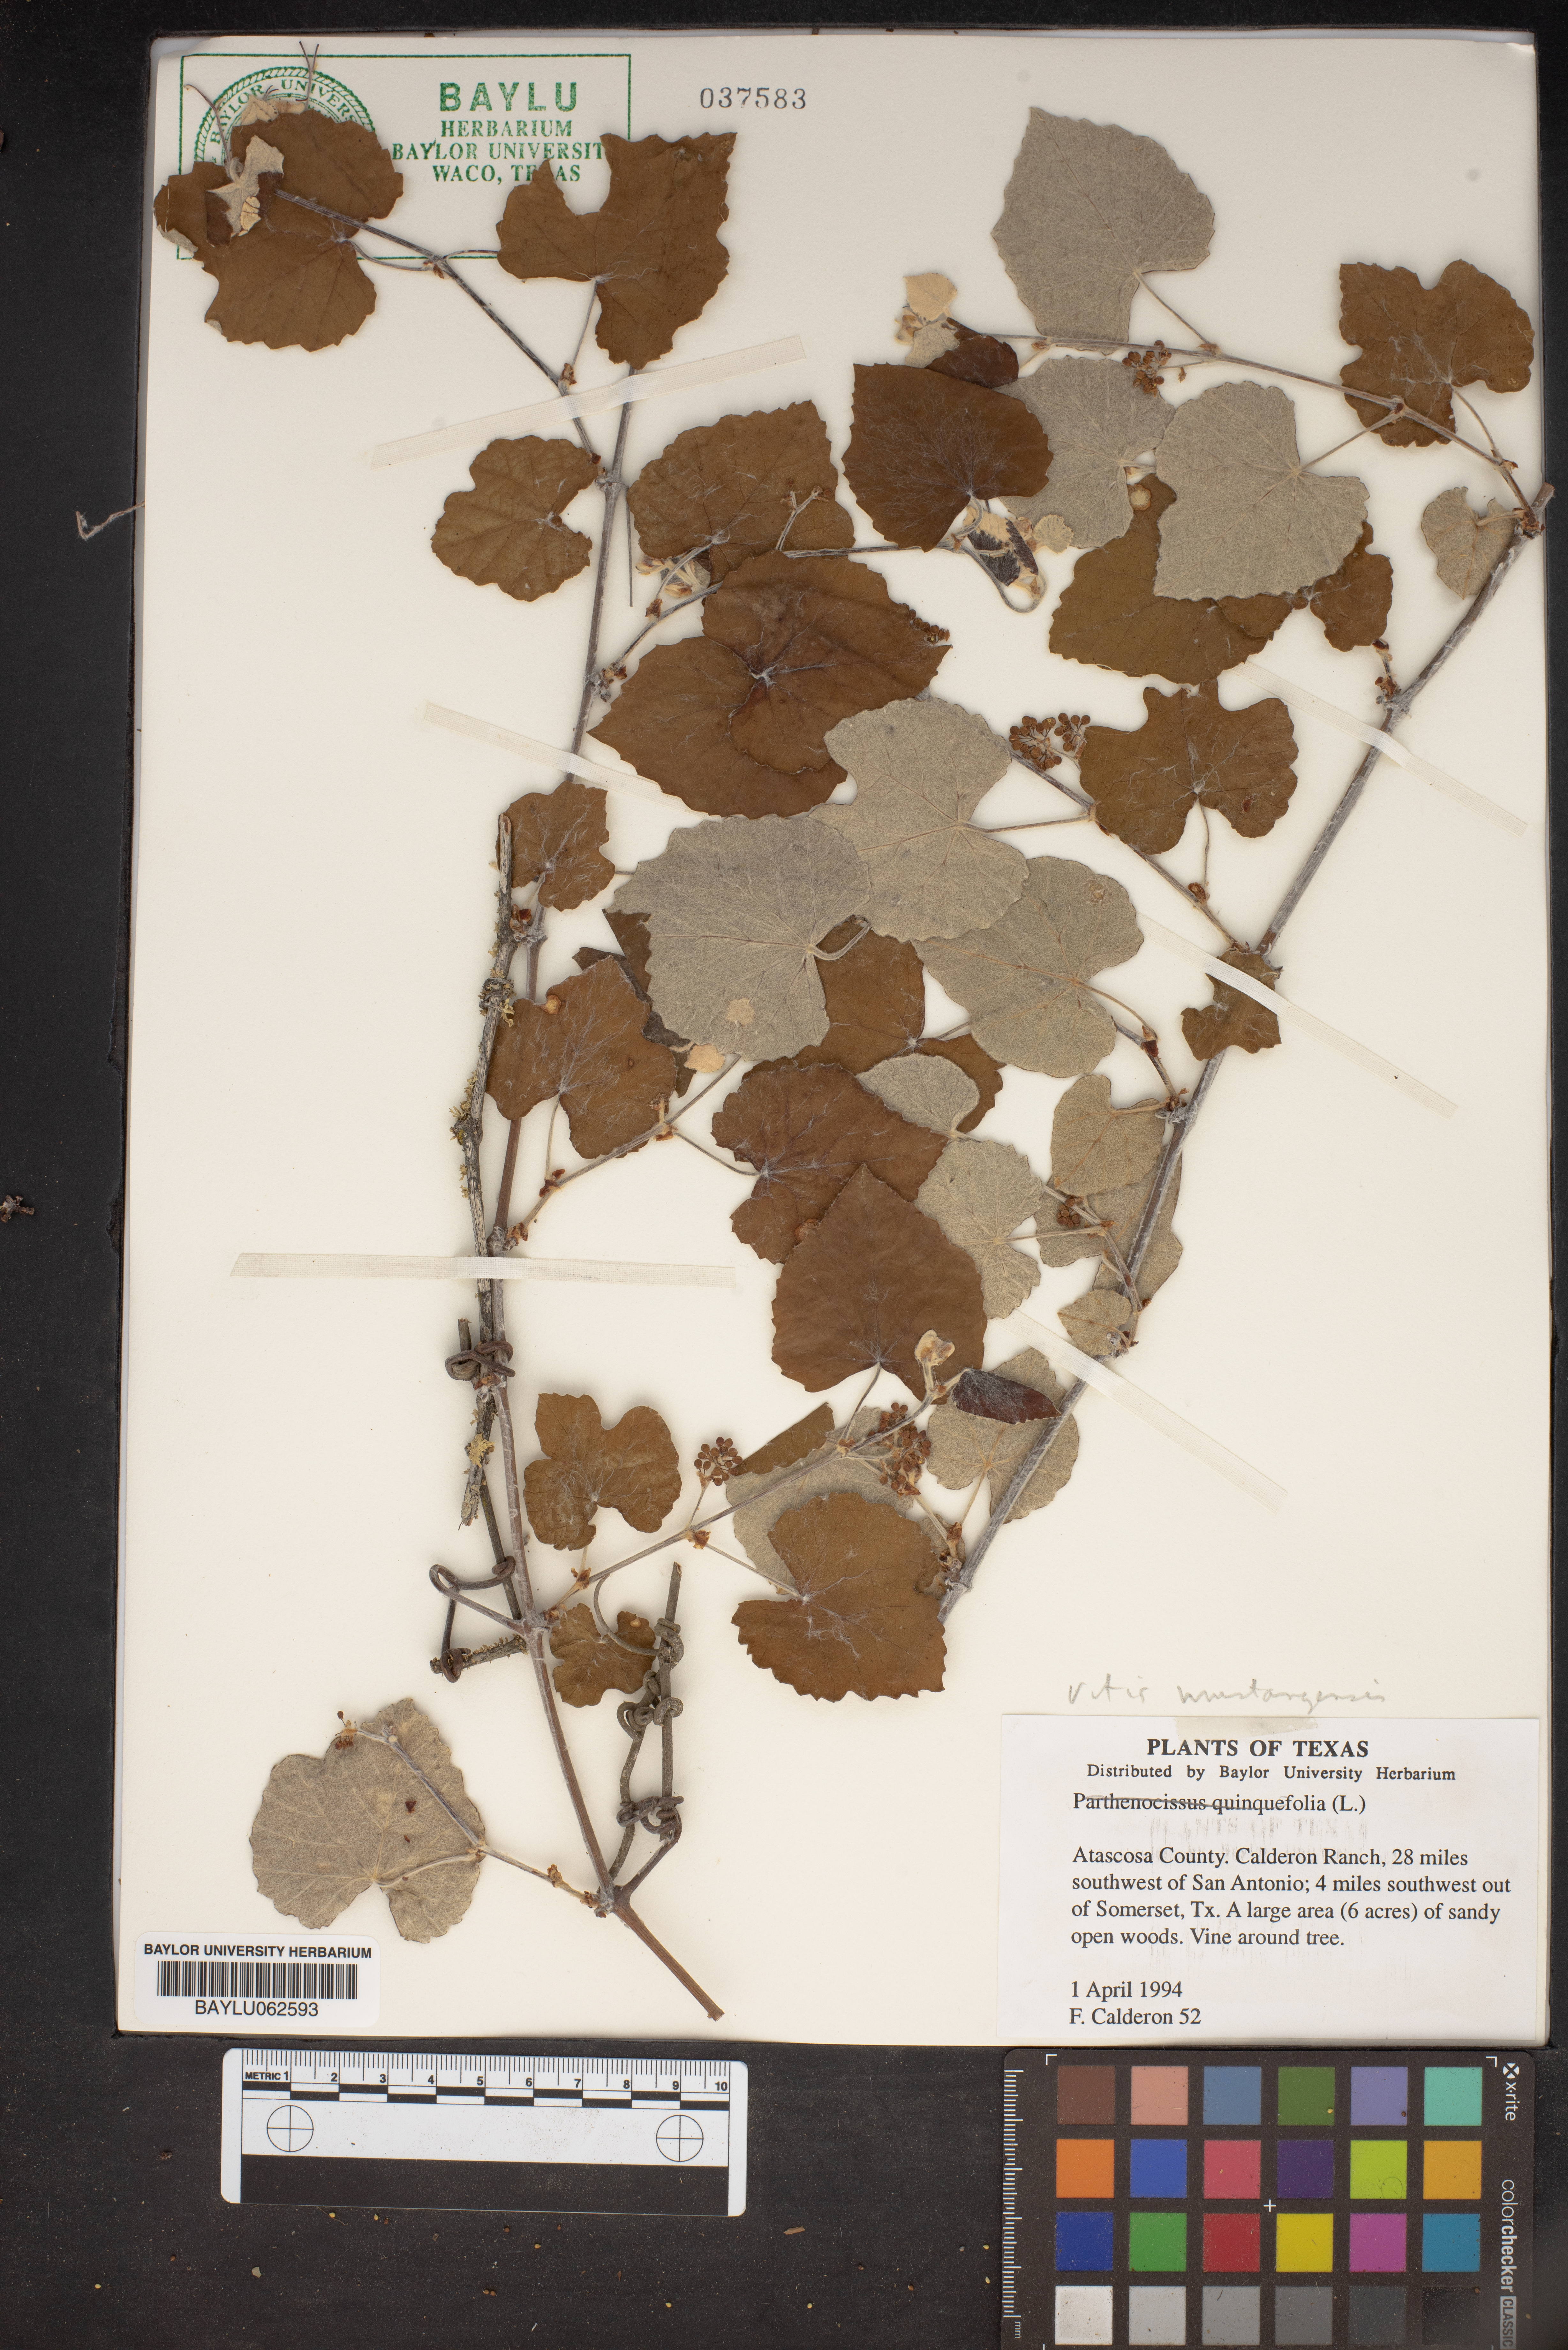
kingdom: Plantae
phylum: Tracheophyta
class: Magnoliopsida
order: Vitales
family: Vitaceae
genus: Vitis
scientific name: Vitis mustangensis
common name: Mustang grape
